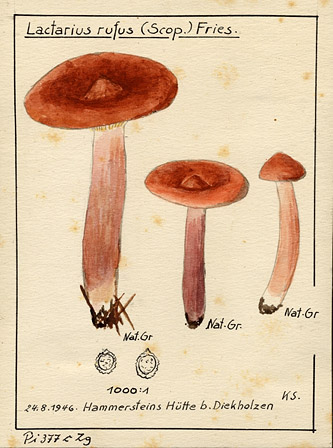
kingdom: Fungi
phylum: Basidiomycota
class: Agaricomycetes
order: Russulales
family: Russulaceae
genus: Lactarius
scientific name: Lactarius rufus
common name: Rufous milk-cap
